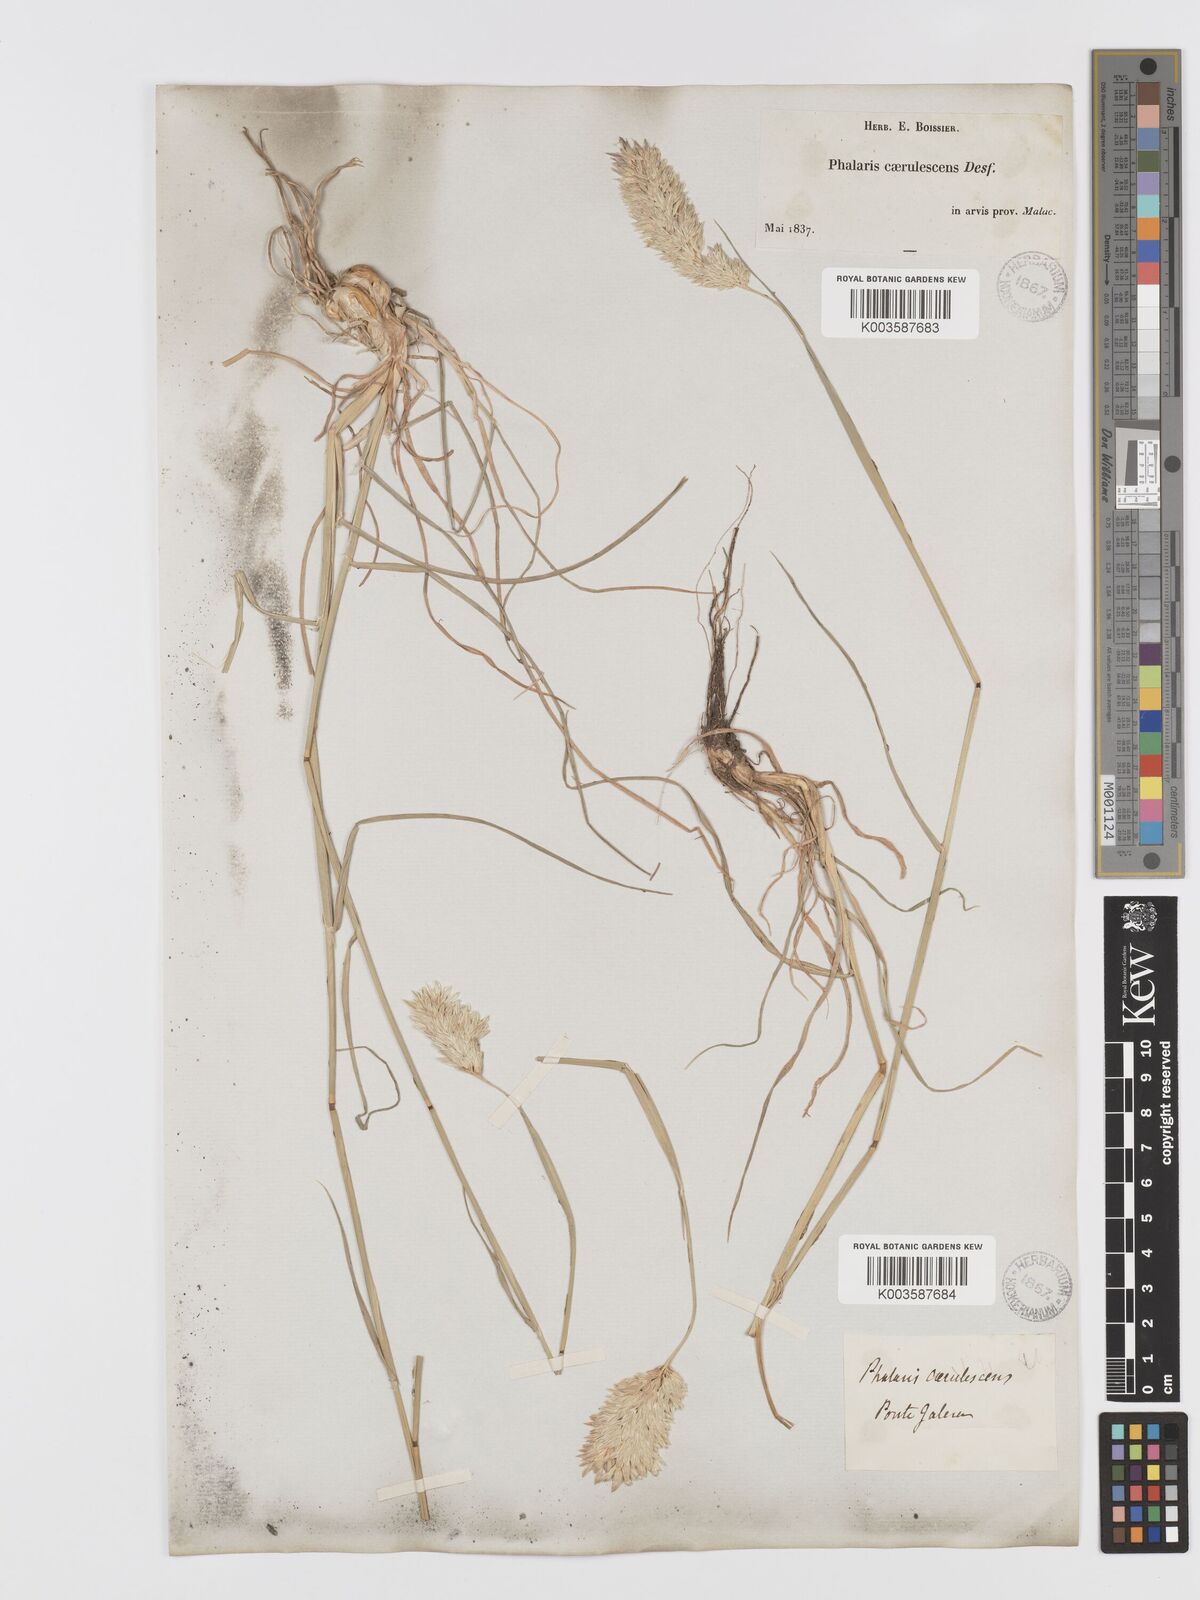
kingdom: Plantae
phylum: Tracheophyta
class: Liliopsida
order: Poales
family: Poaceae
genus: Phalaris
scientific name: Phalaris coerulescens
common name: Sunolgrass
